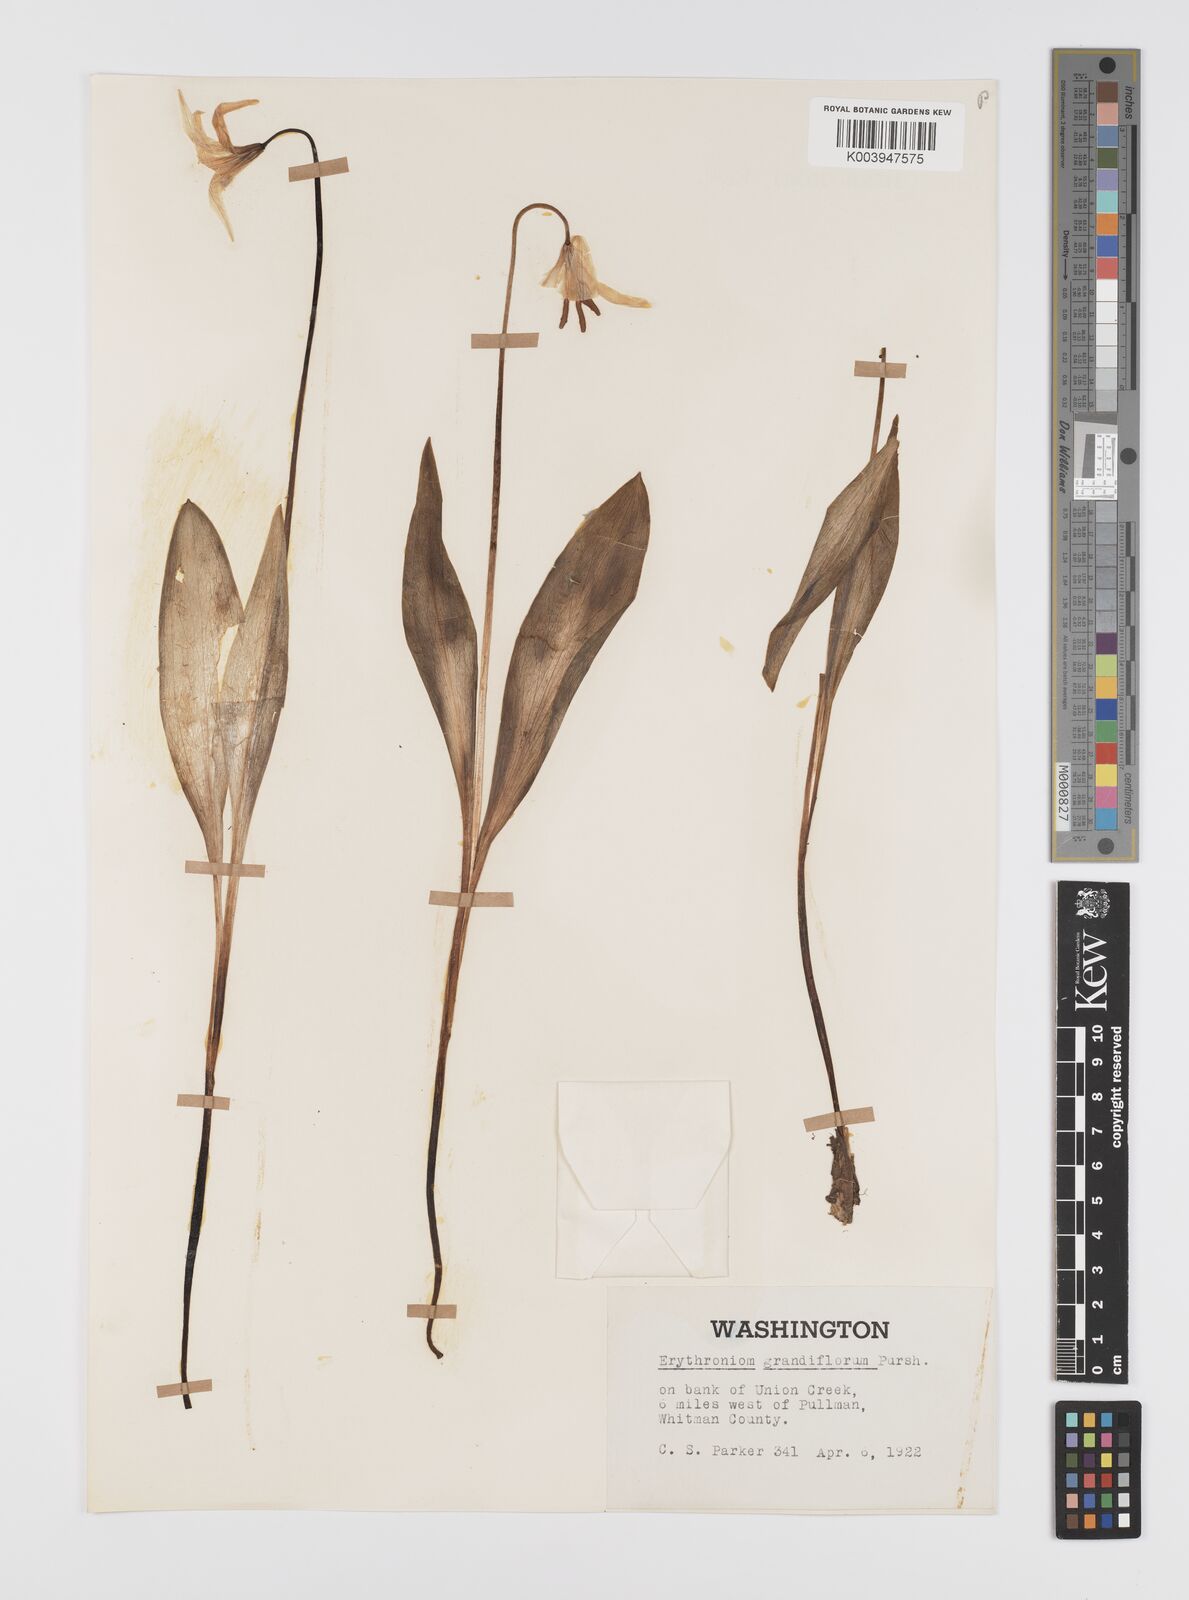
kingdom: Plantae
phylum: Tracheophyta
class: Liliopsida
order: Liliales
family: Liliaceae
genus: Erythronium
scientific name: Erythronium grandiflorum
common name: Avalanche-lily
